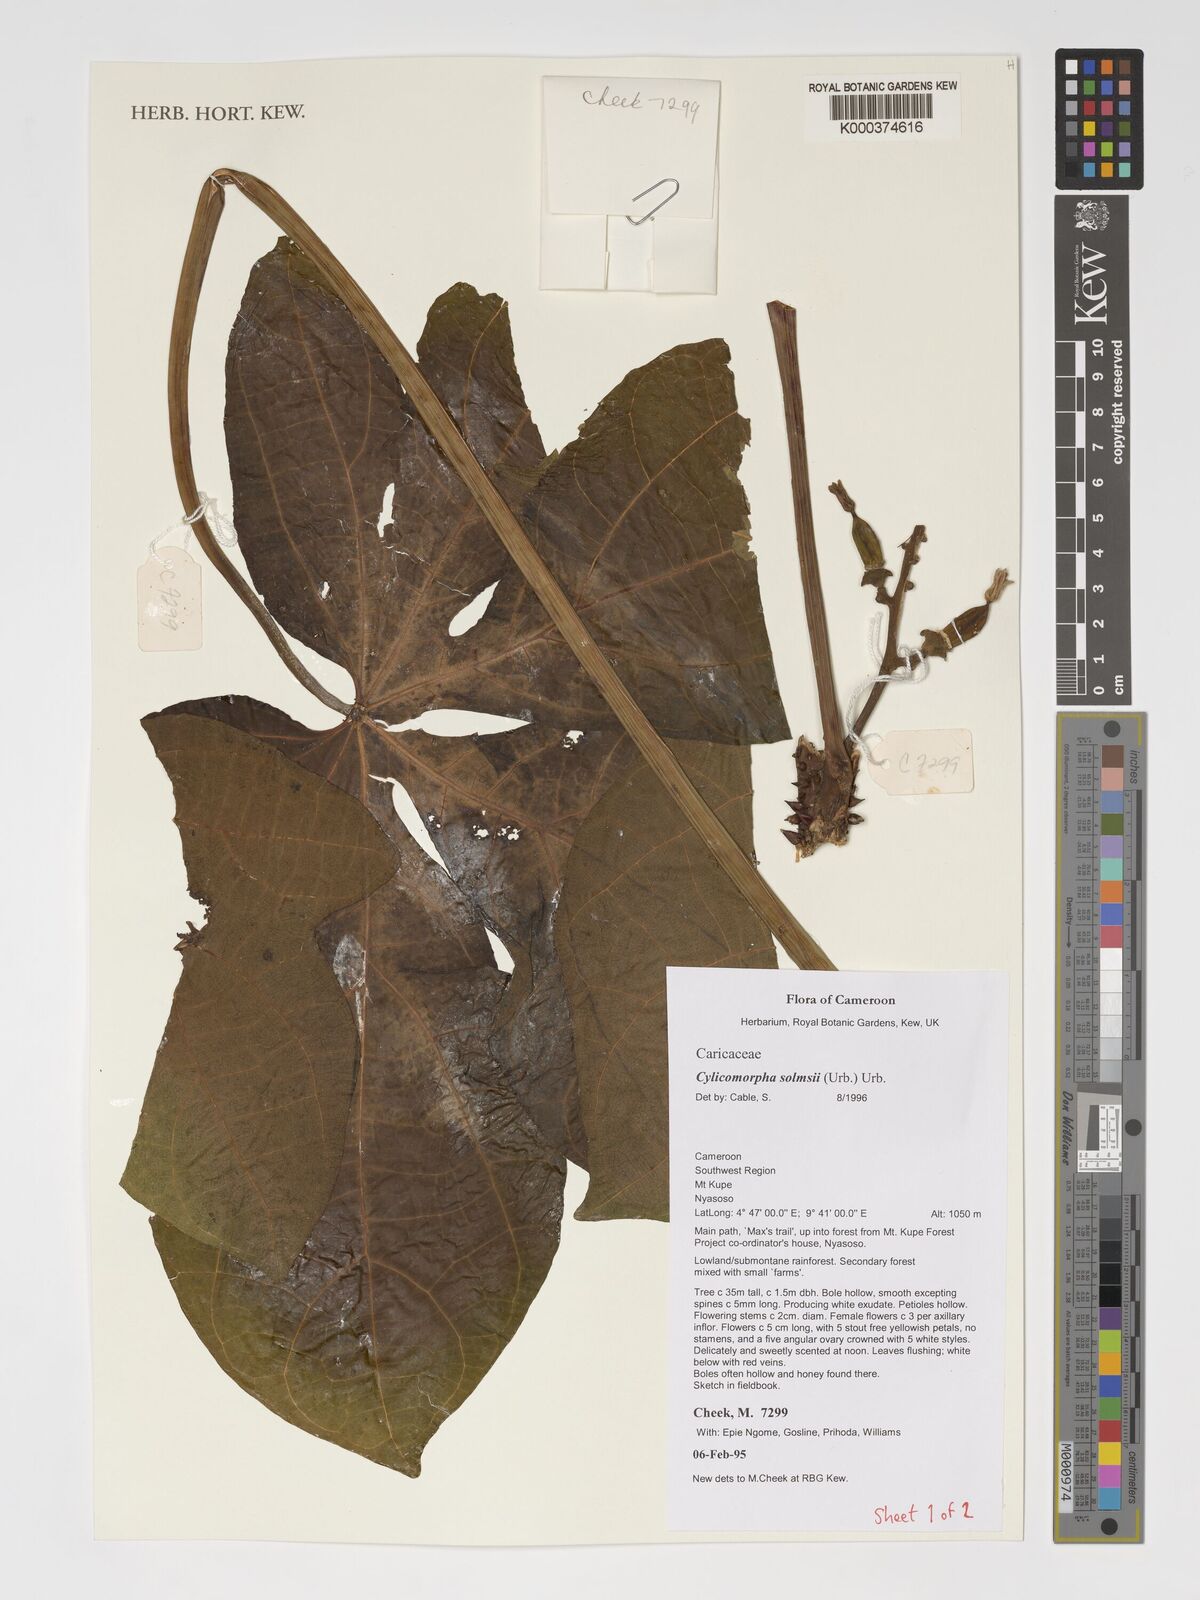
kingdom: Plantae
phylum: Tracheophyta
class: Magnoliopsida
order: Brassicales
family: Caricaceae
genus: Cylicomorpha
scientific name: Cylicomorpha solmsii
